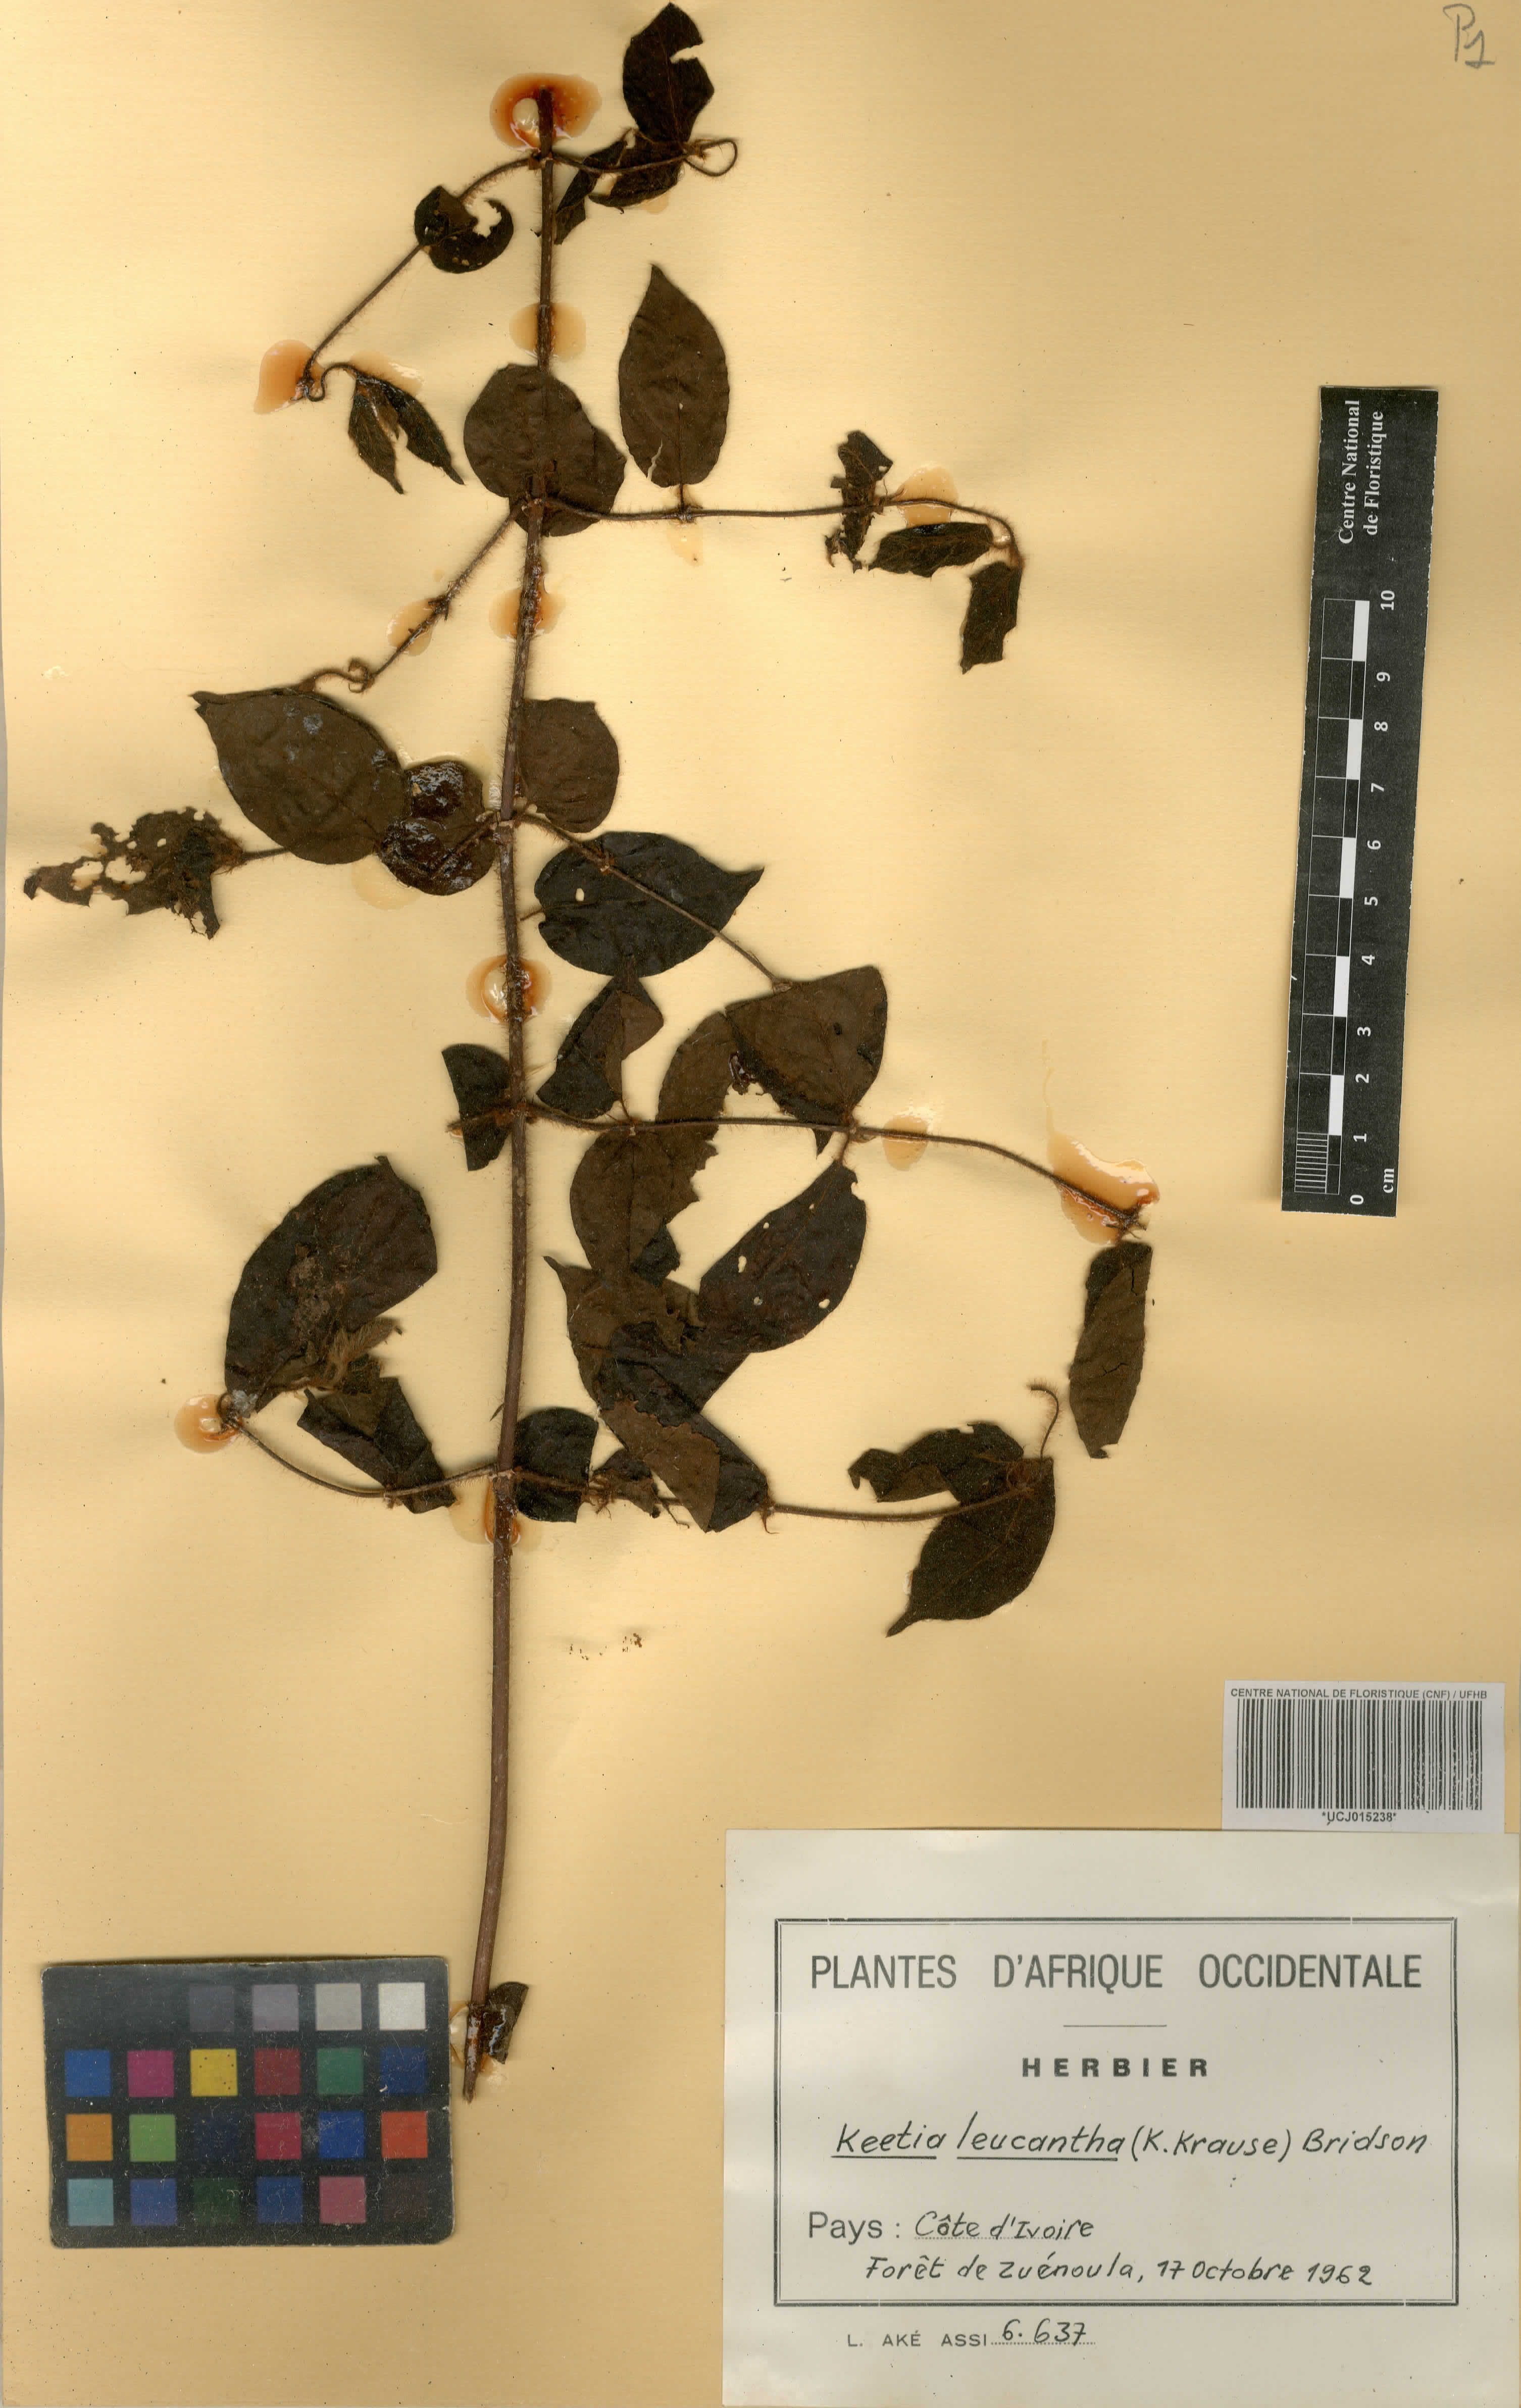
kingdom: Plantae
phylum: Tracheophyta
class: Magnoliopsida
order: Gentianales
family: Rubiaceae
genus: Keetia
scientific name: Keetia leucantha
